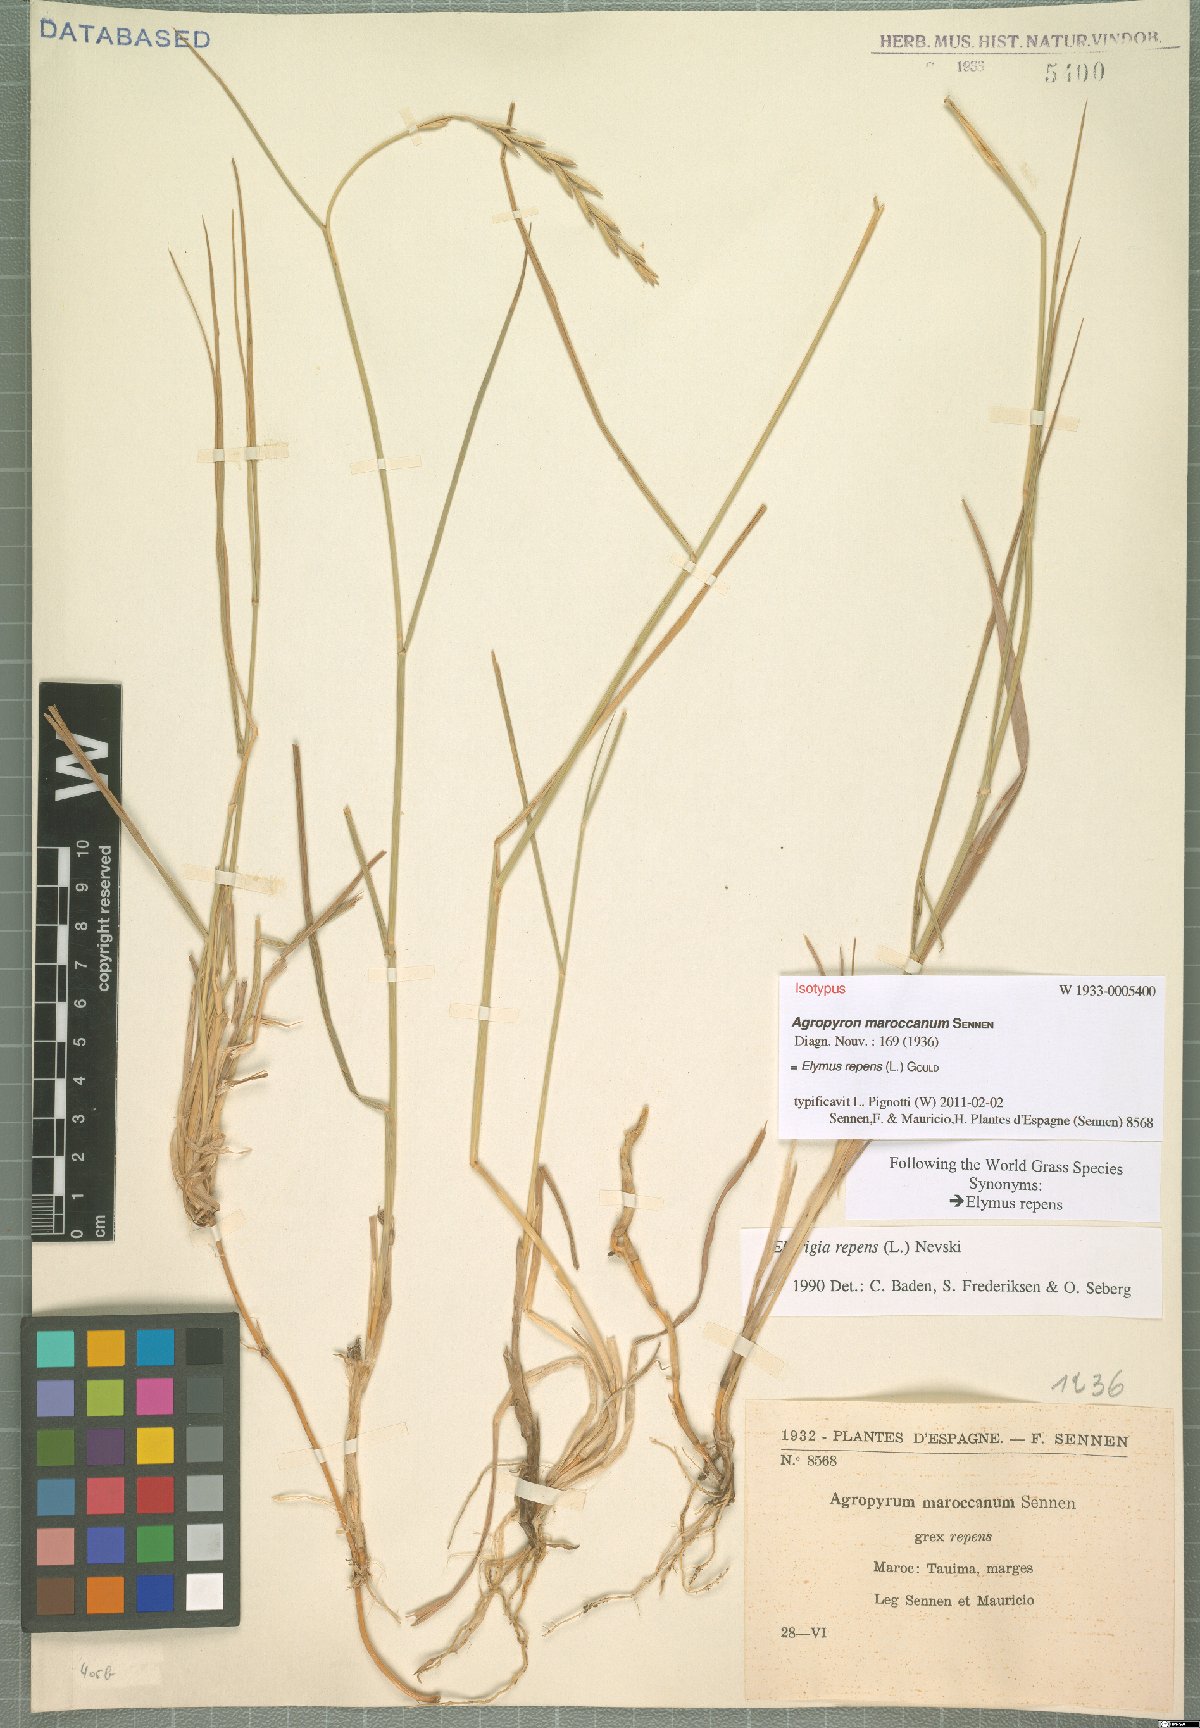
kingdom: Plantae
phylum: Tracheophyta
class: Liliopsida
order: Poales
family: Poaceae
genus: Elymus
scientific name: Elymus repens
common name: Quackgrass
